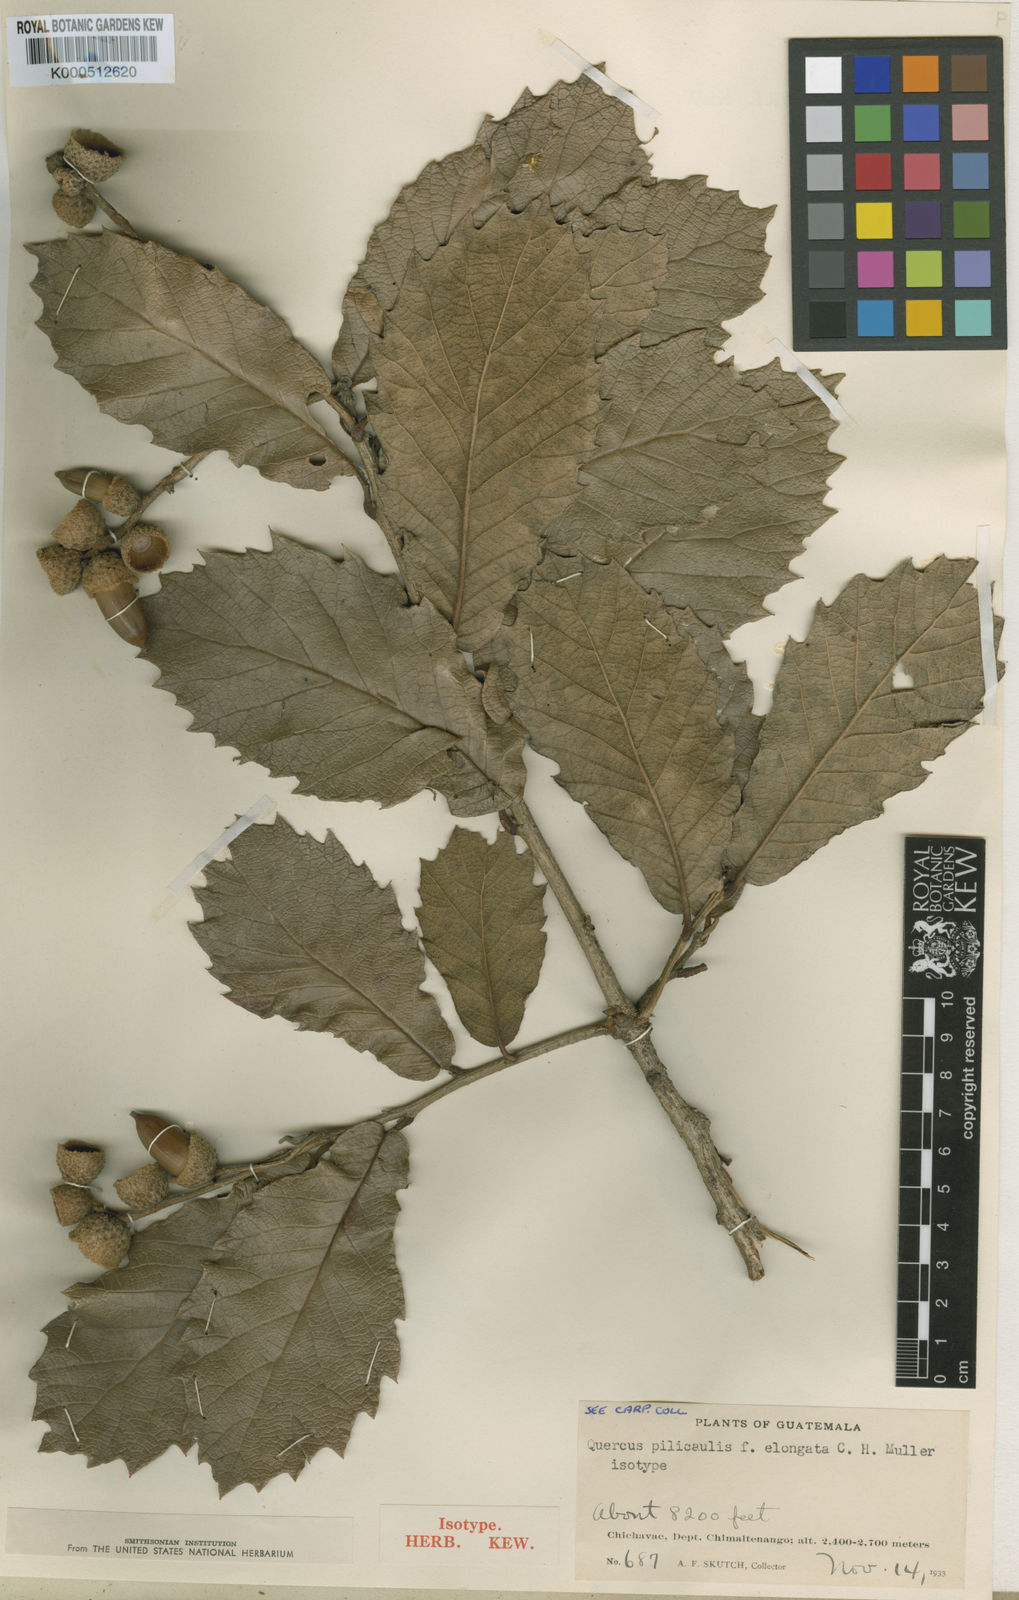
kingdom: Plantae
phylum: Tracheophyta
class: Magnoliopsida
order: Fagales
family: Fagaceae
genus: Quercus
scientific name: Quercus peduncularis
